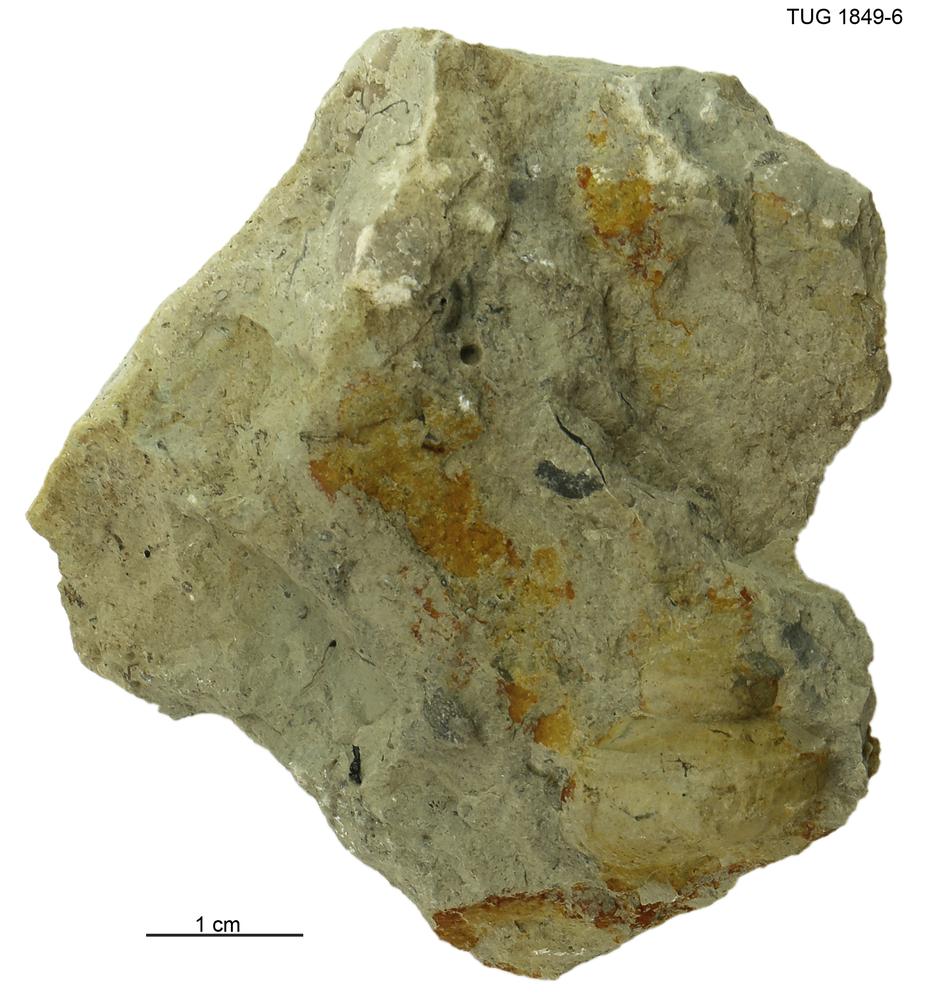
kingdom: Animalia
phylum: Mollusca
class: Gastropoda
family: Lophospiridae
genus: Lophospira
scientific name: Lophospira
